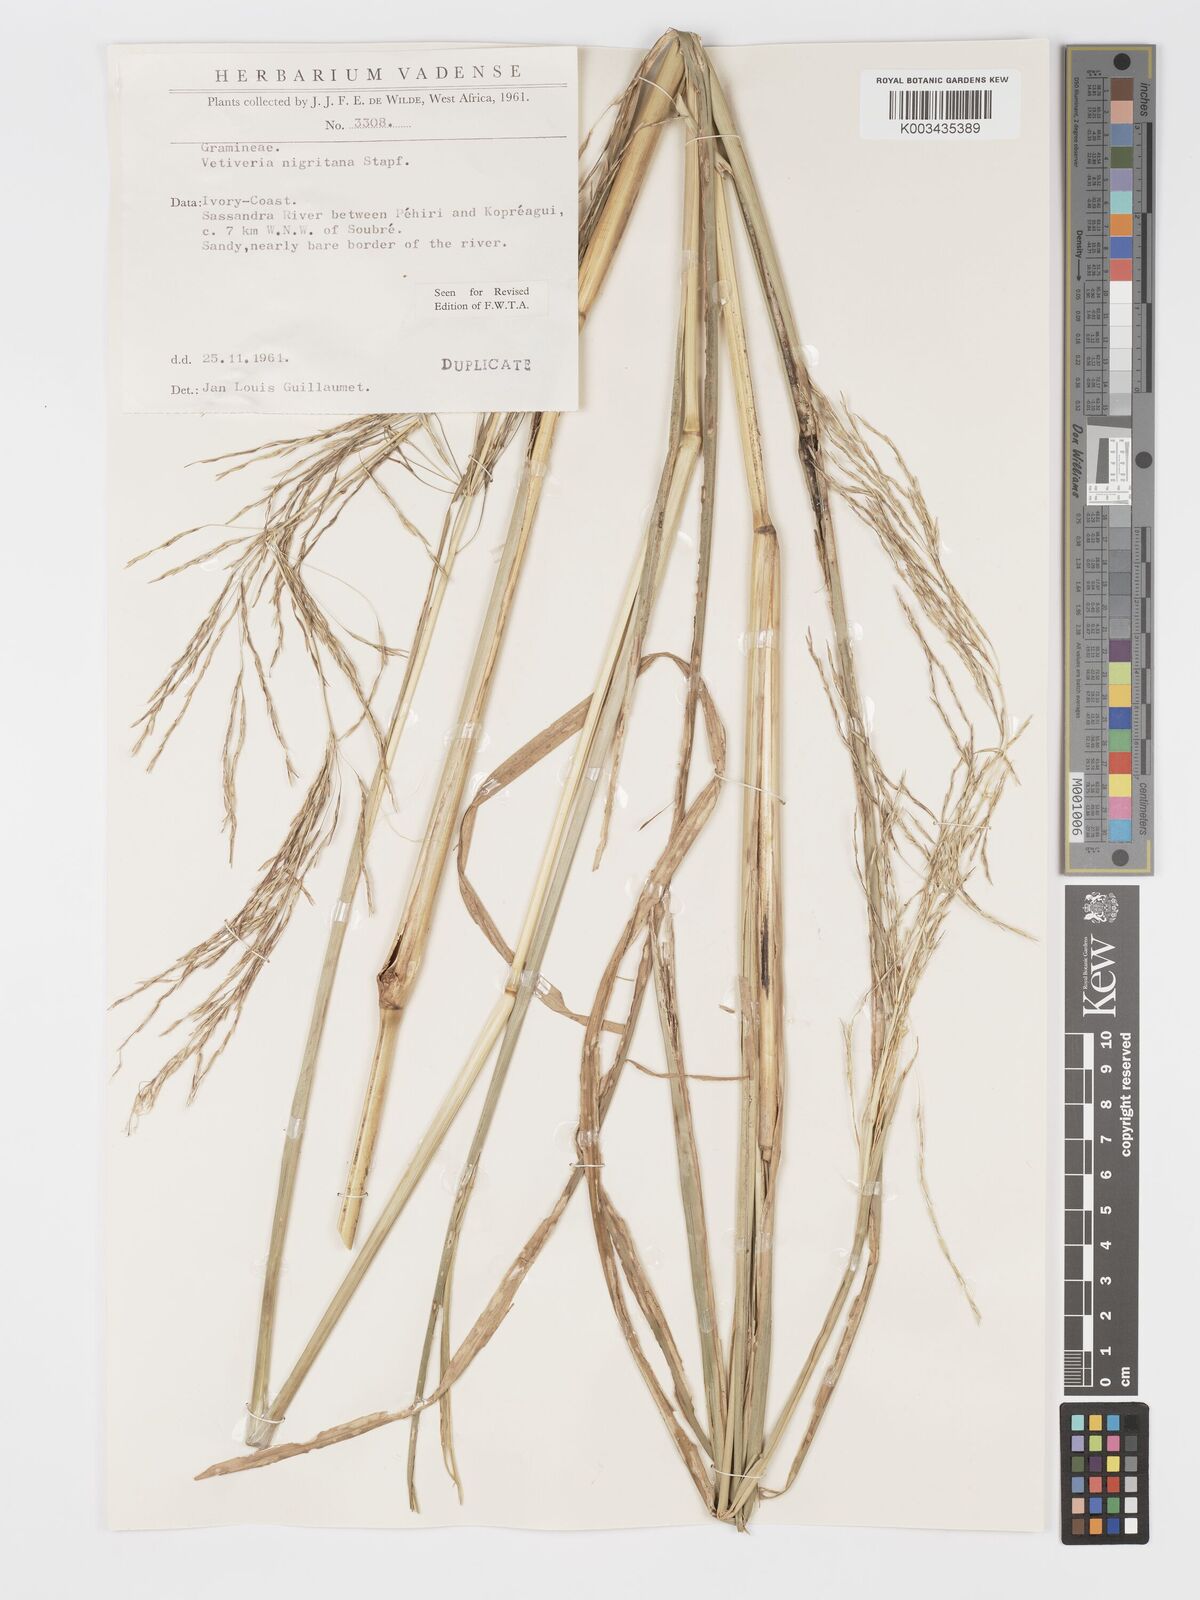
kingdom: Plantae
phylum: Tracheophyta
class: Liliopsida
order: Poales
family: Poaceae
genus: Chrysopogon
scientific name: Chrysopogon nigritanus
